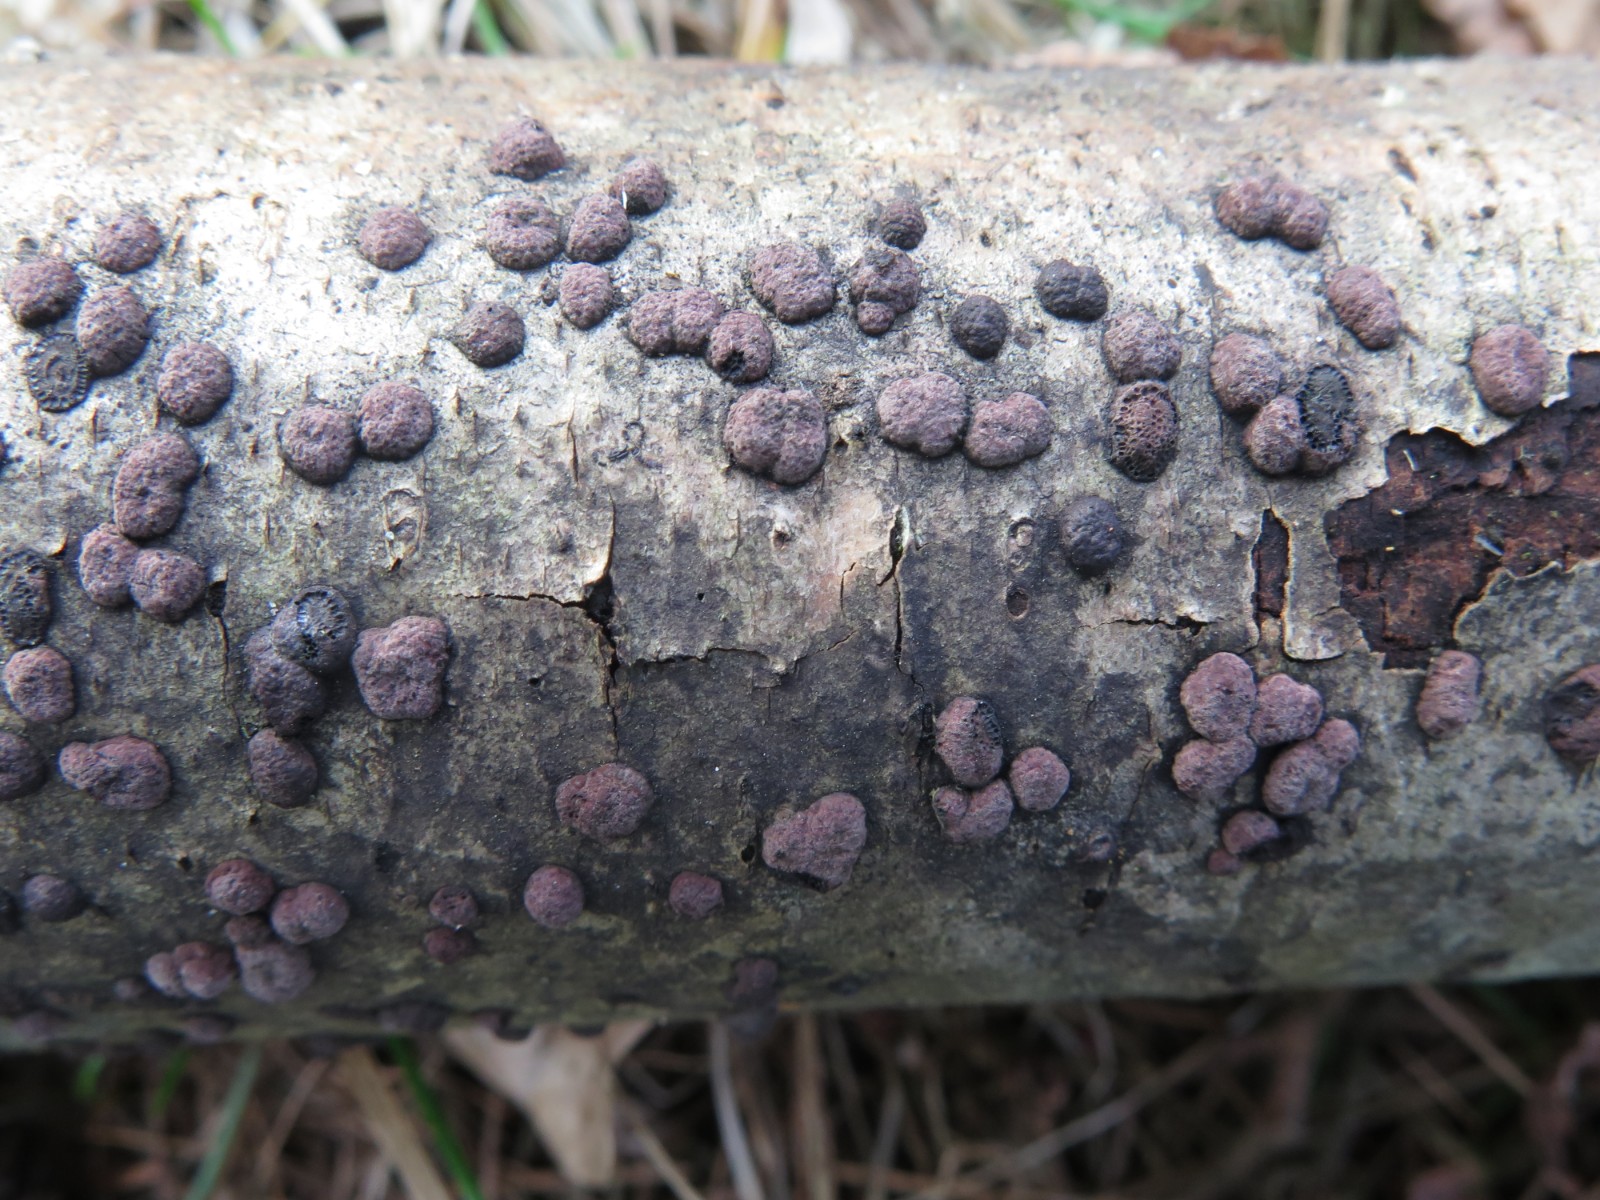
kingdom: Fungi
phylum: Ascomycota
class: Sordariomycetes
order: Xylariales
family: Hypoxylaceae
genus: Hypoxylon
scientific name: Hypoxylon howeanum
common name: halvkugleformet kulbær
